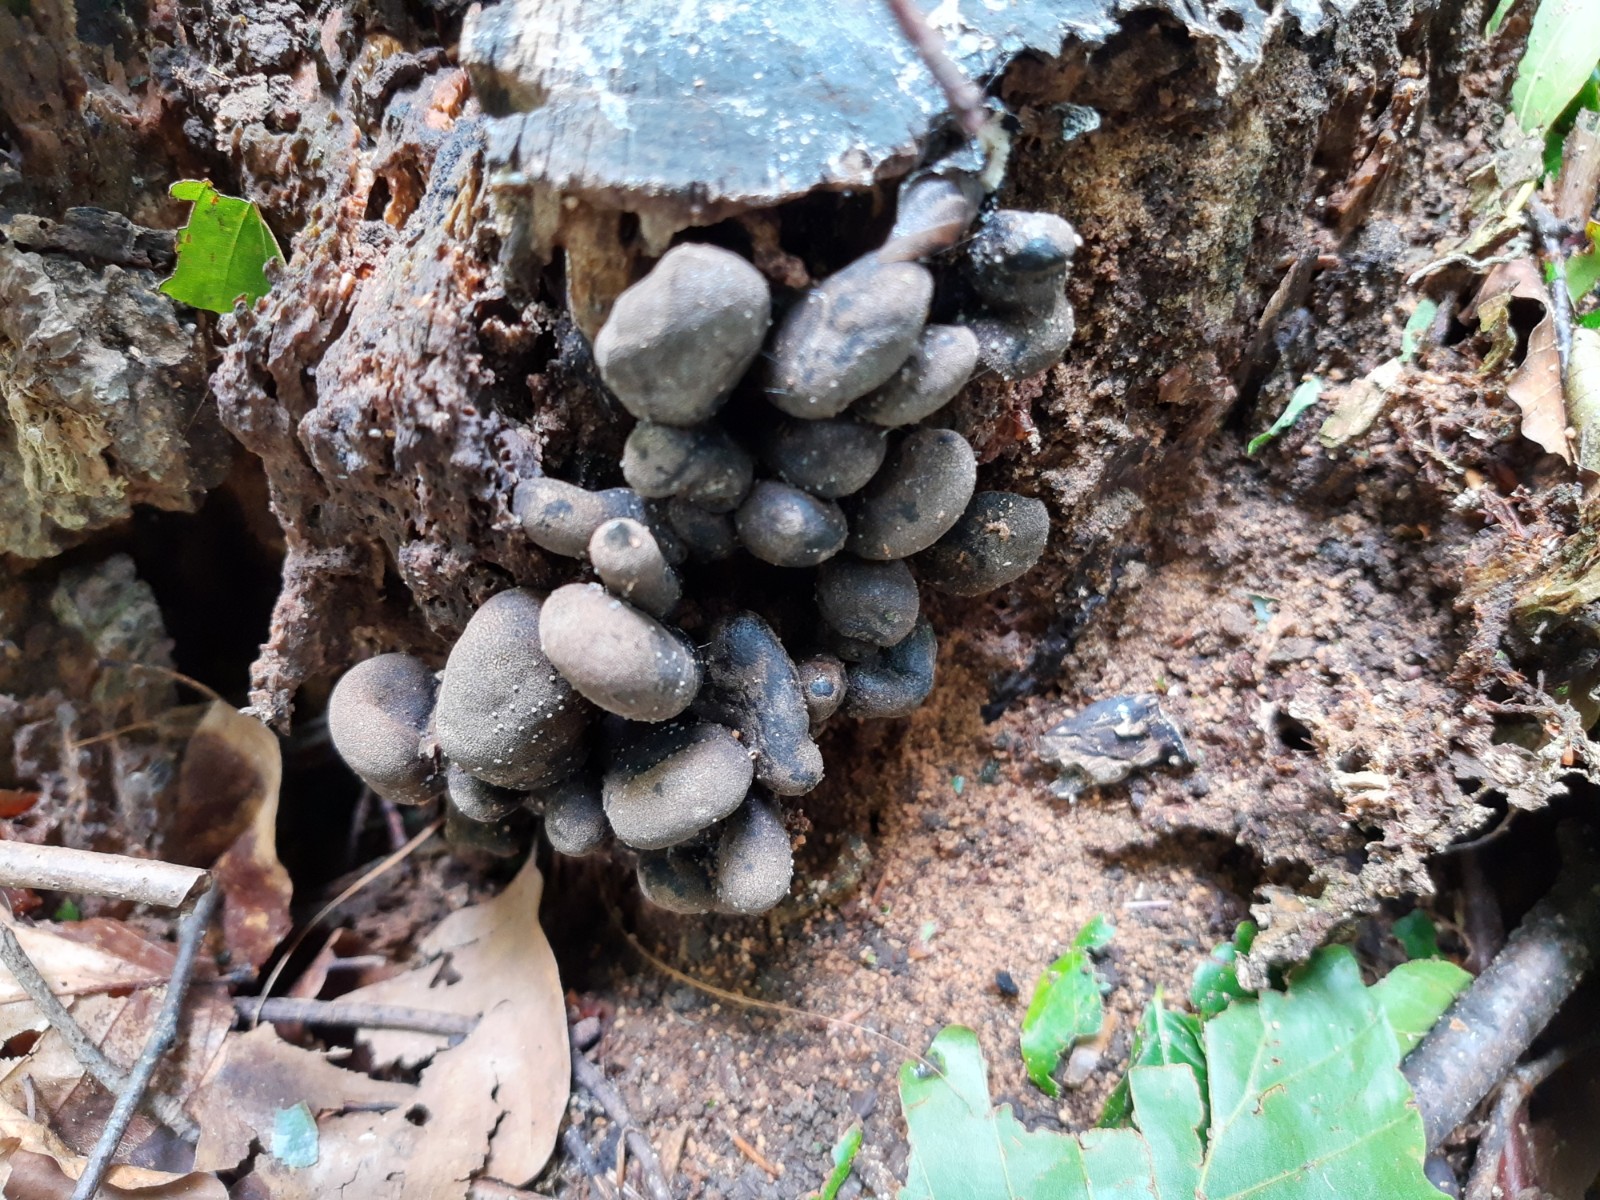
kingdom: Fungi
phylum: Ascomycota
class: Sordariomycetes
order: Xylariales
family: Xylariaceae
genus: Xylaria
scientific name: Xylaria polymorpha
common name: kølle-stødsvamp
